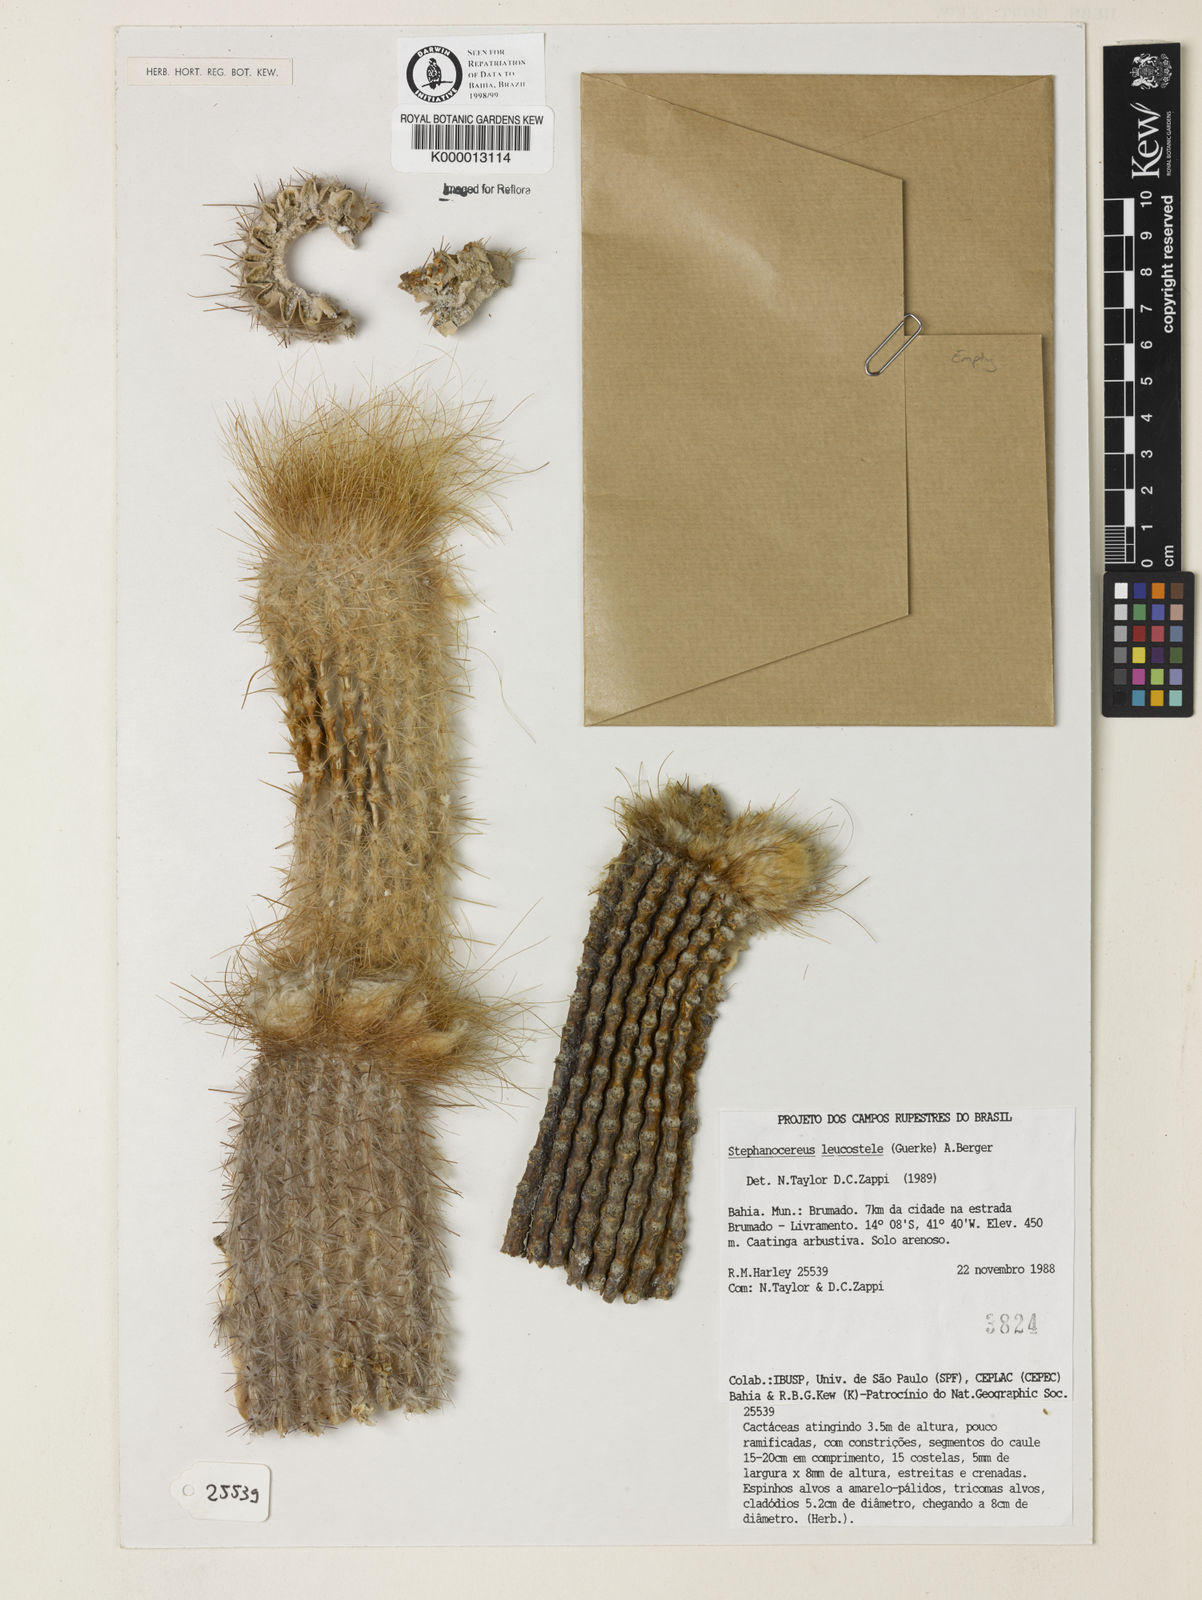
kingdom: Plantae
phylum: Tracheophyta
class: Magnoliopsida
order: Caryophyllales
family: Cactaceae
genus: Arrojadoa
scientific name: Arrojadoa leucostele
